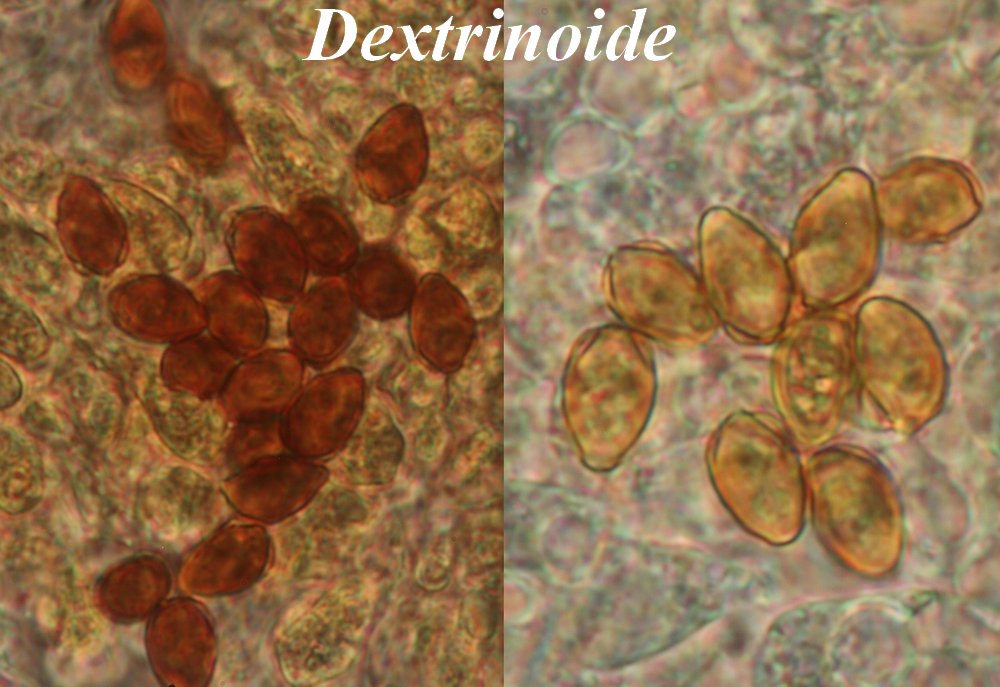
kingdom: Fungi
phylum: Basidiomycota
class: Agaricomycetes
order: Agaricales
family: Hymenogastraceae
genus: Galerina
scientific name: Galerina sphagnicola
